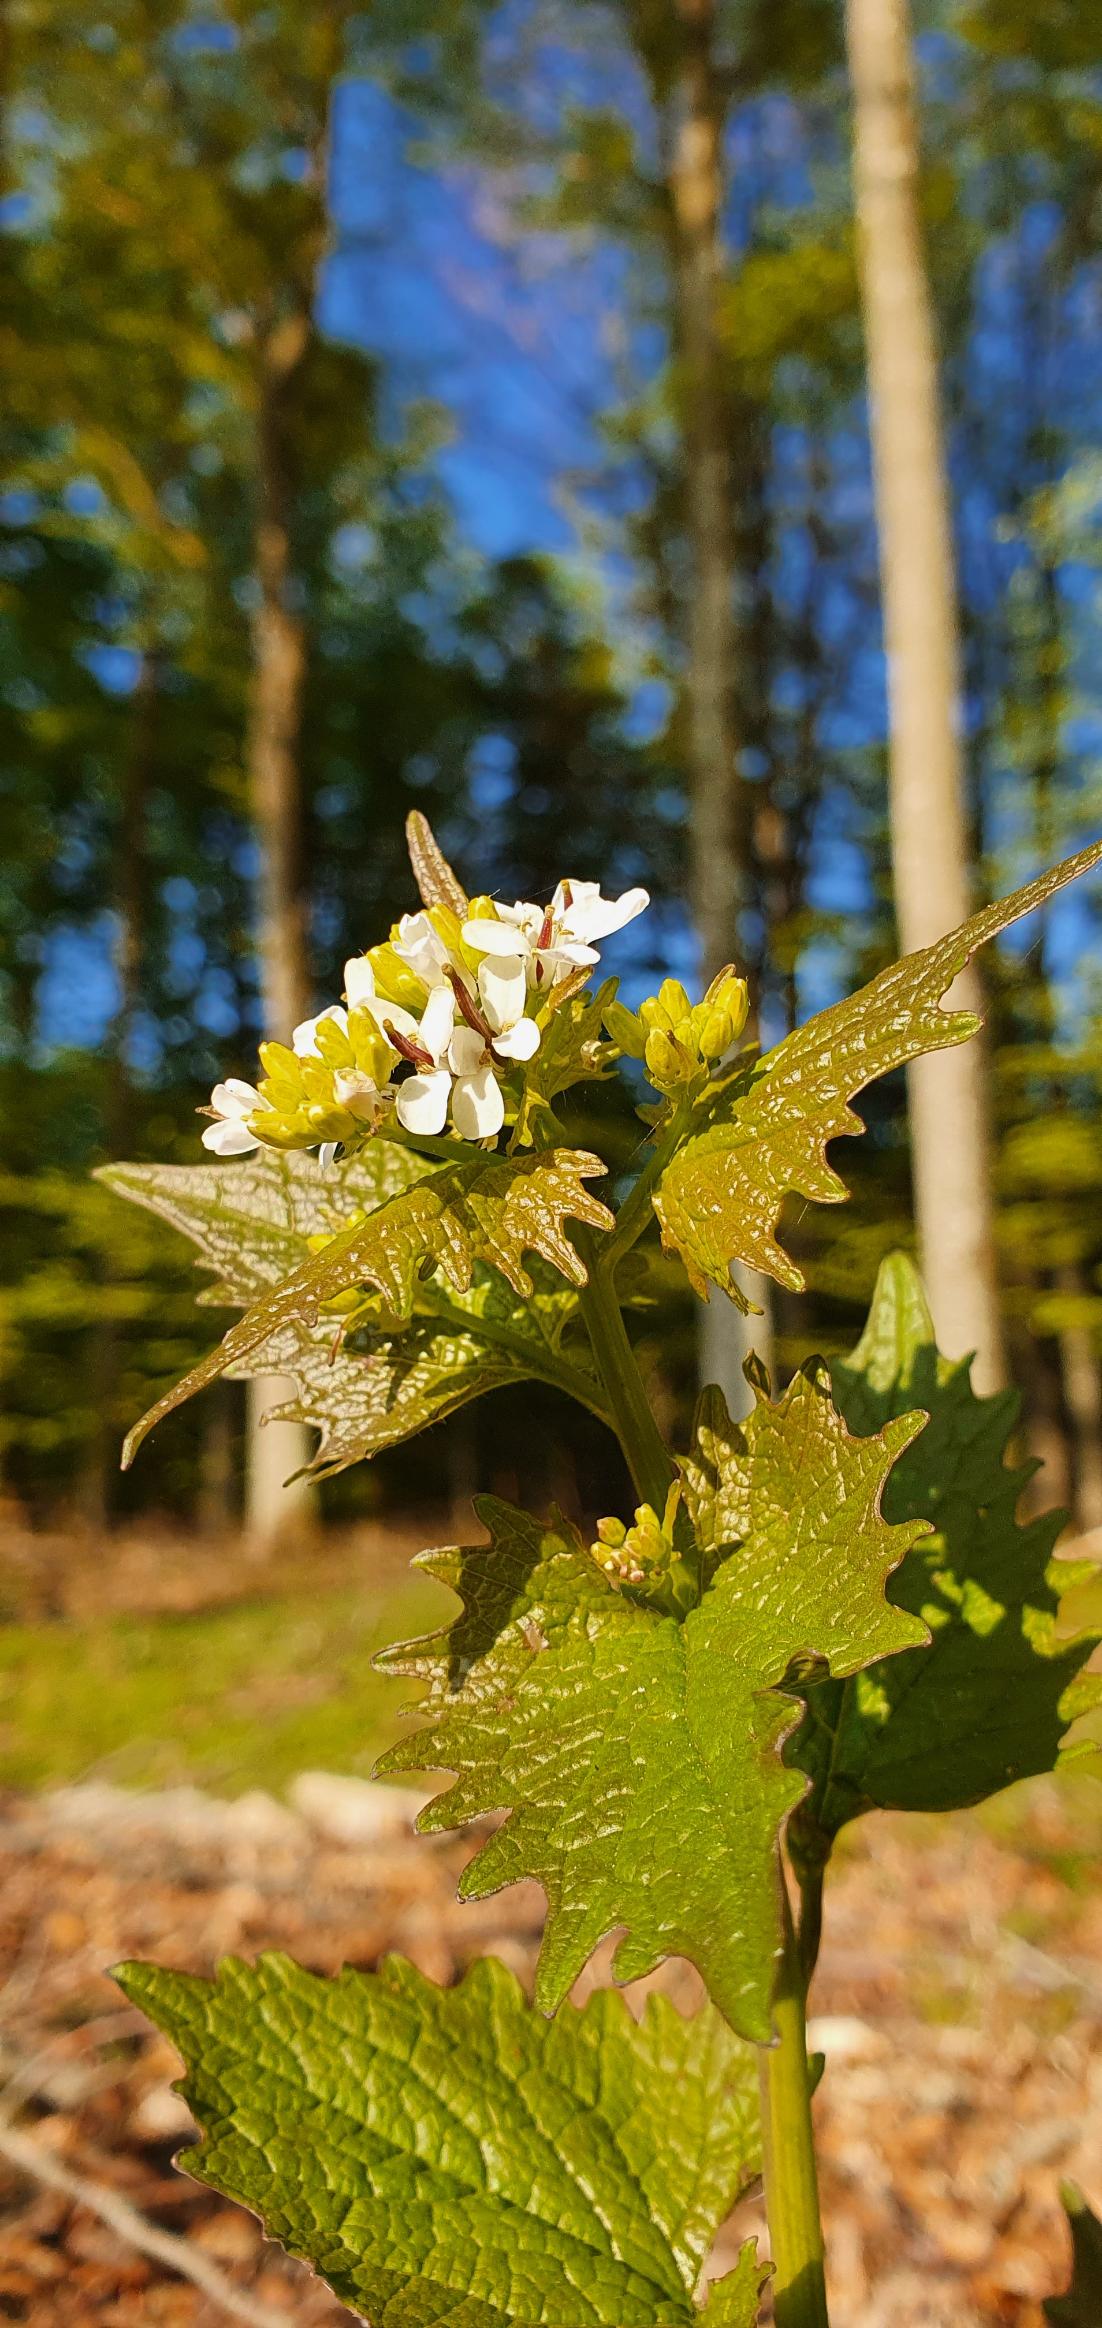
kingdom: Plantae
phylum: Tracheophyta
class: Magnoliopsida
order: Brassicales
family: Brassicaceae
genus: Alliaria
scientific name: Alliaria petiolata
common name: Løgkarse
